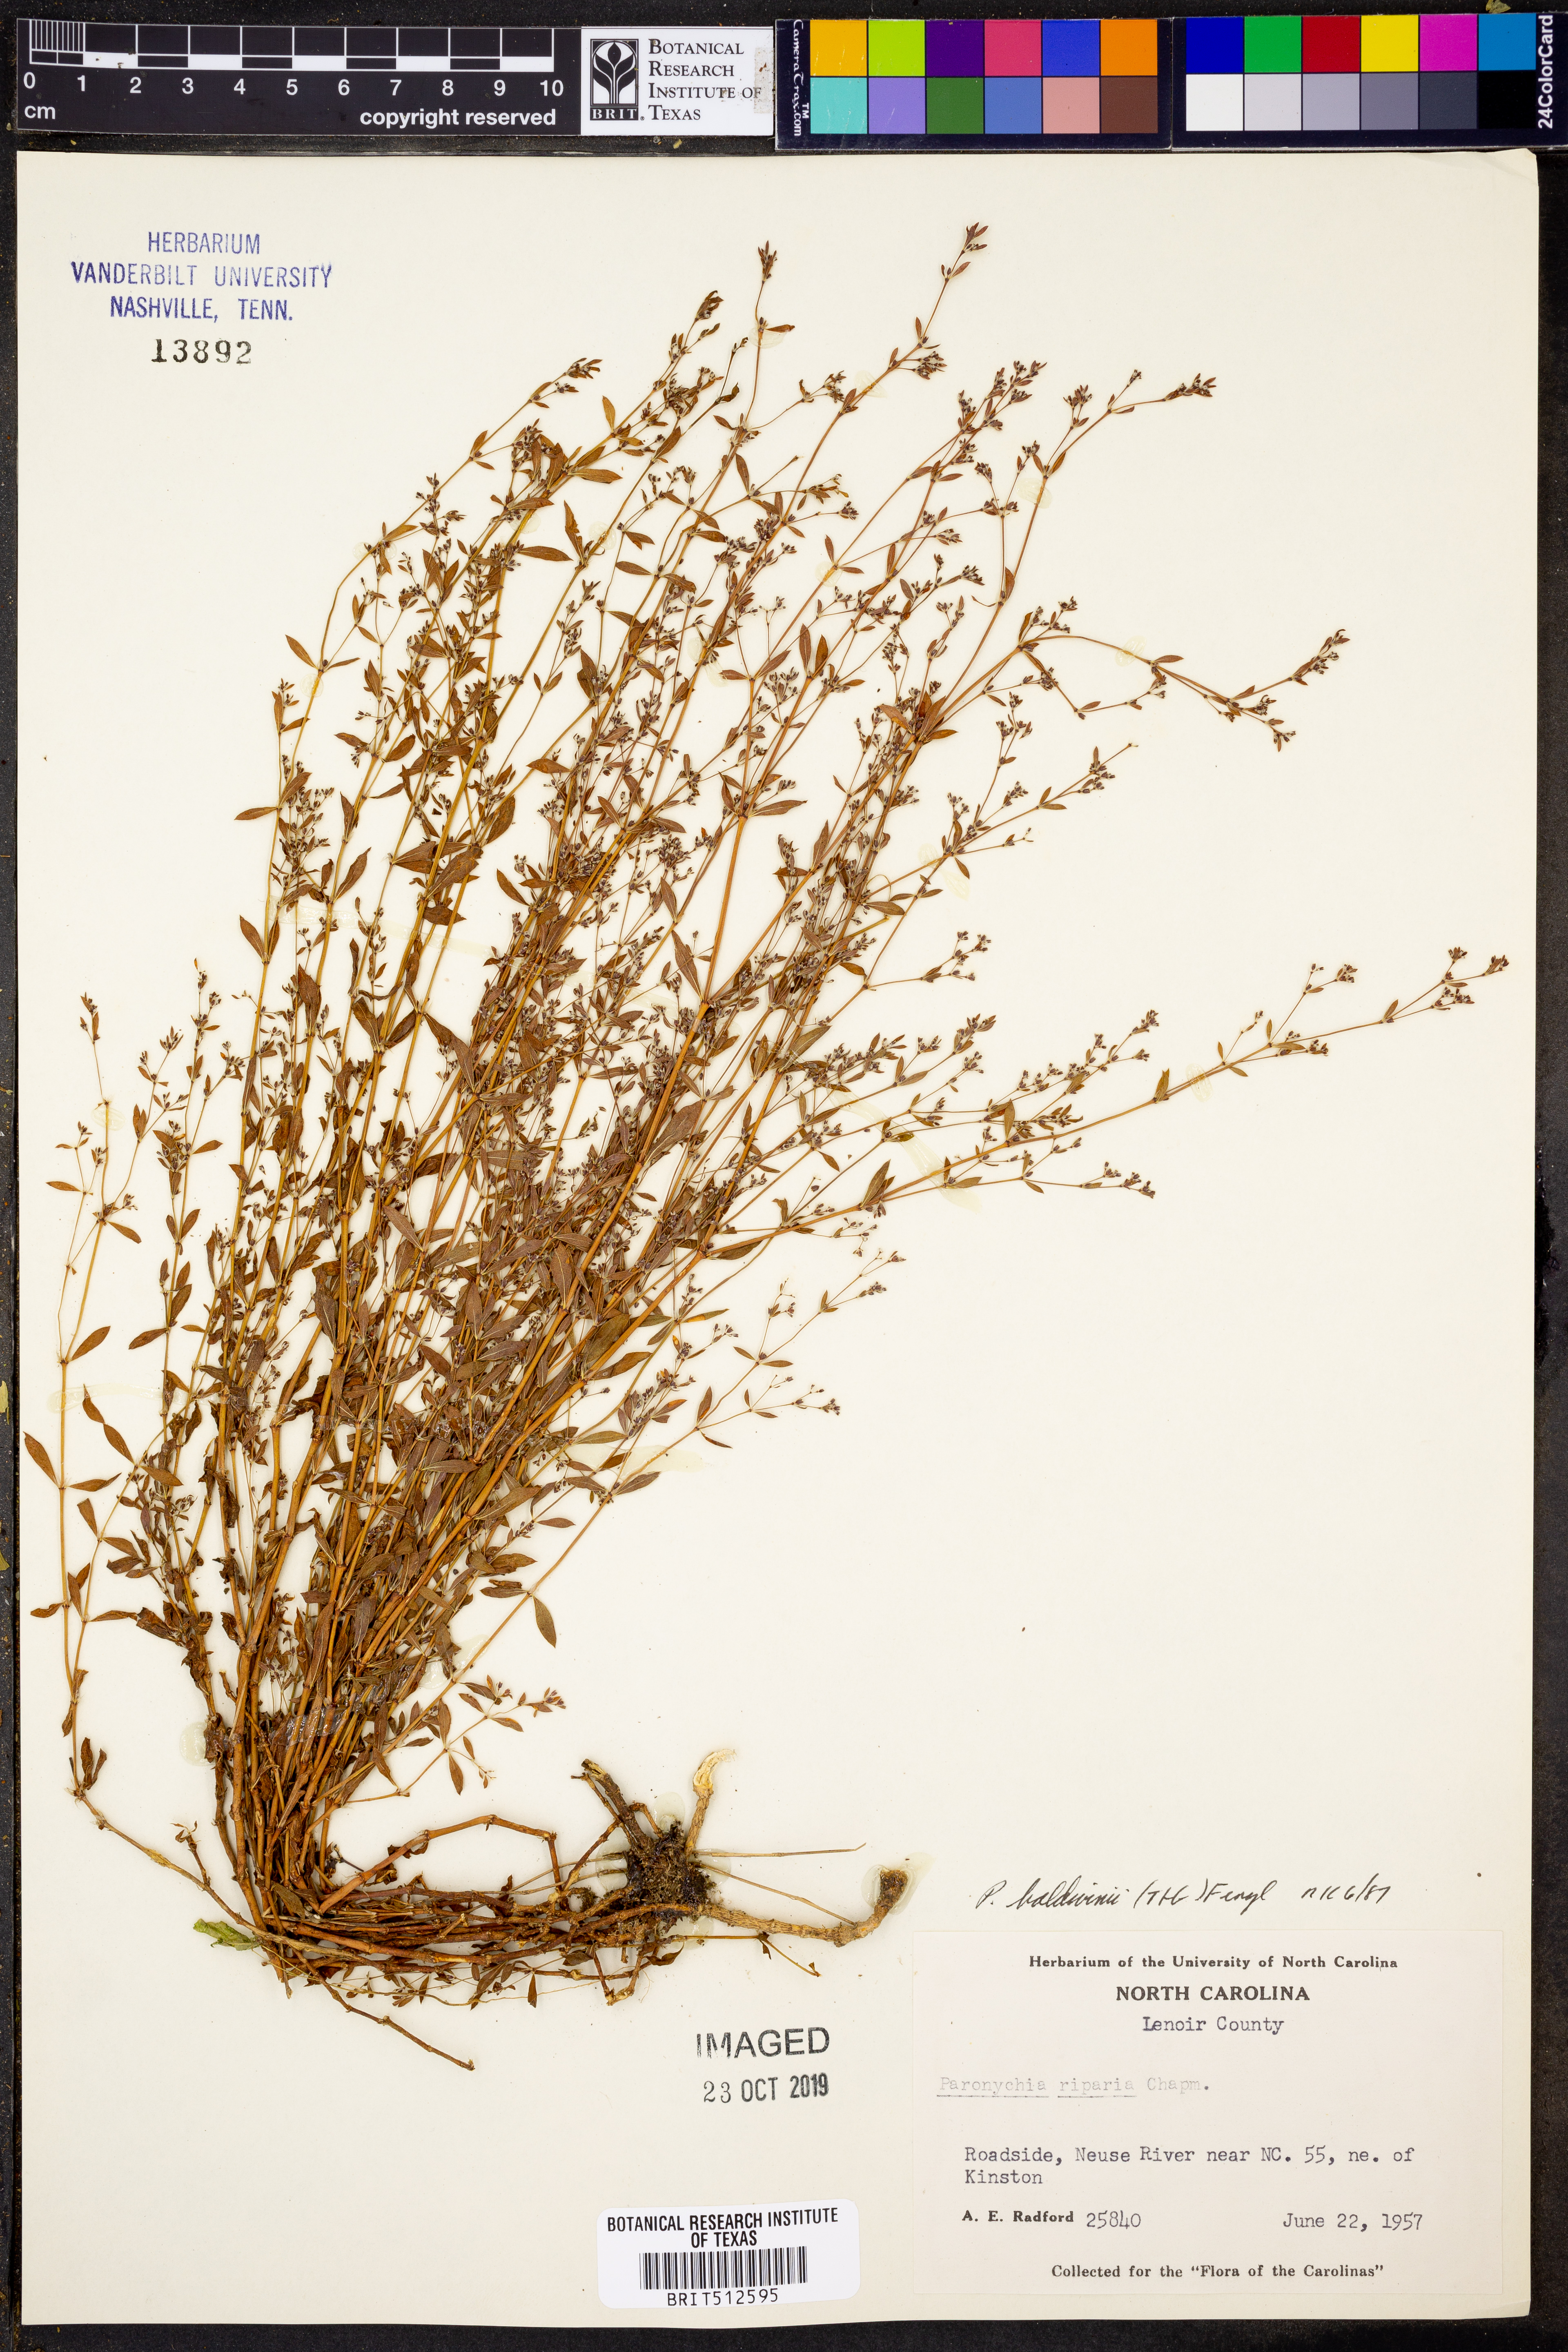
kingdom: Plantae
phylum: Tracheophyta
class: Magnoliopsida
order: Caryophyllales
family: Caryophyllaceae
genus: Paronychia
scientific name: Paronychia baldwinii
